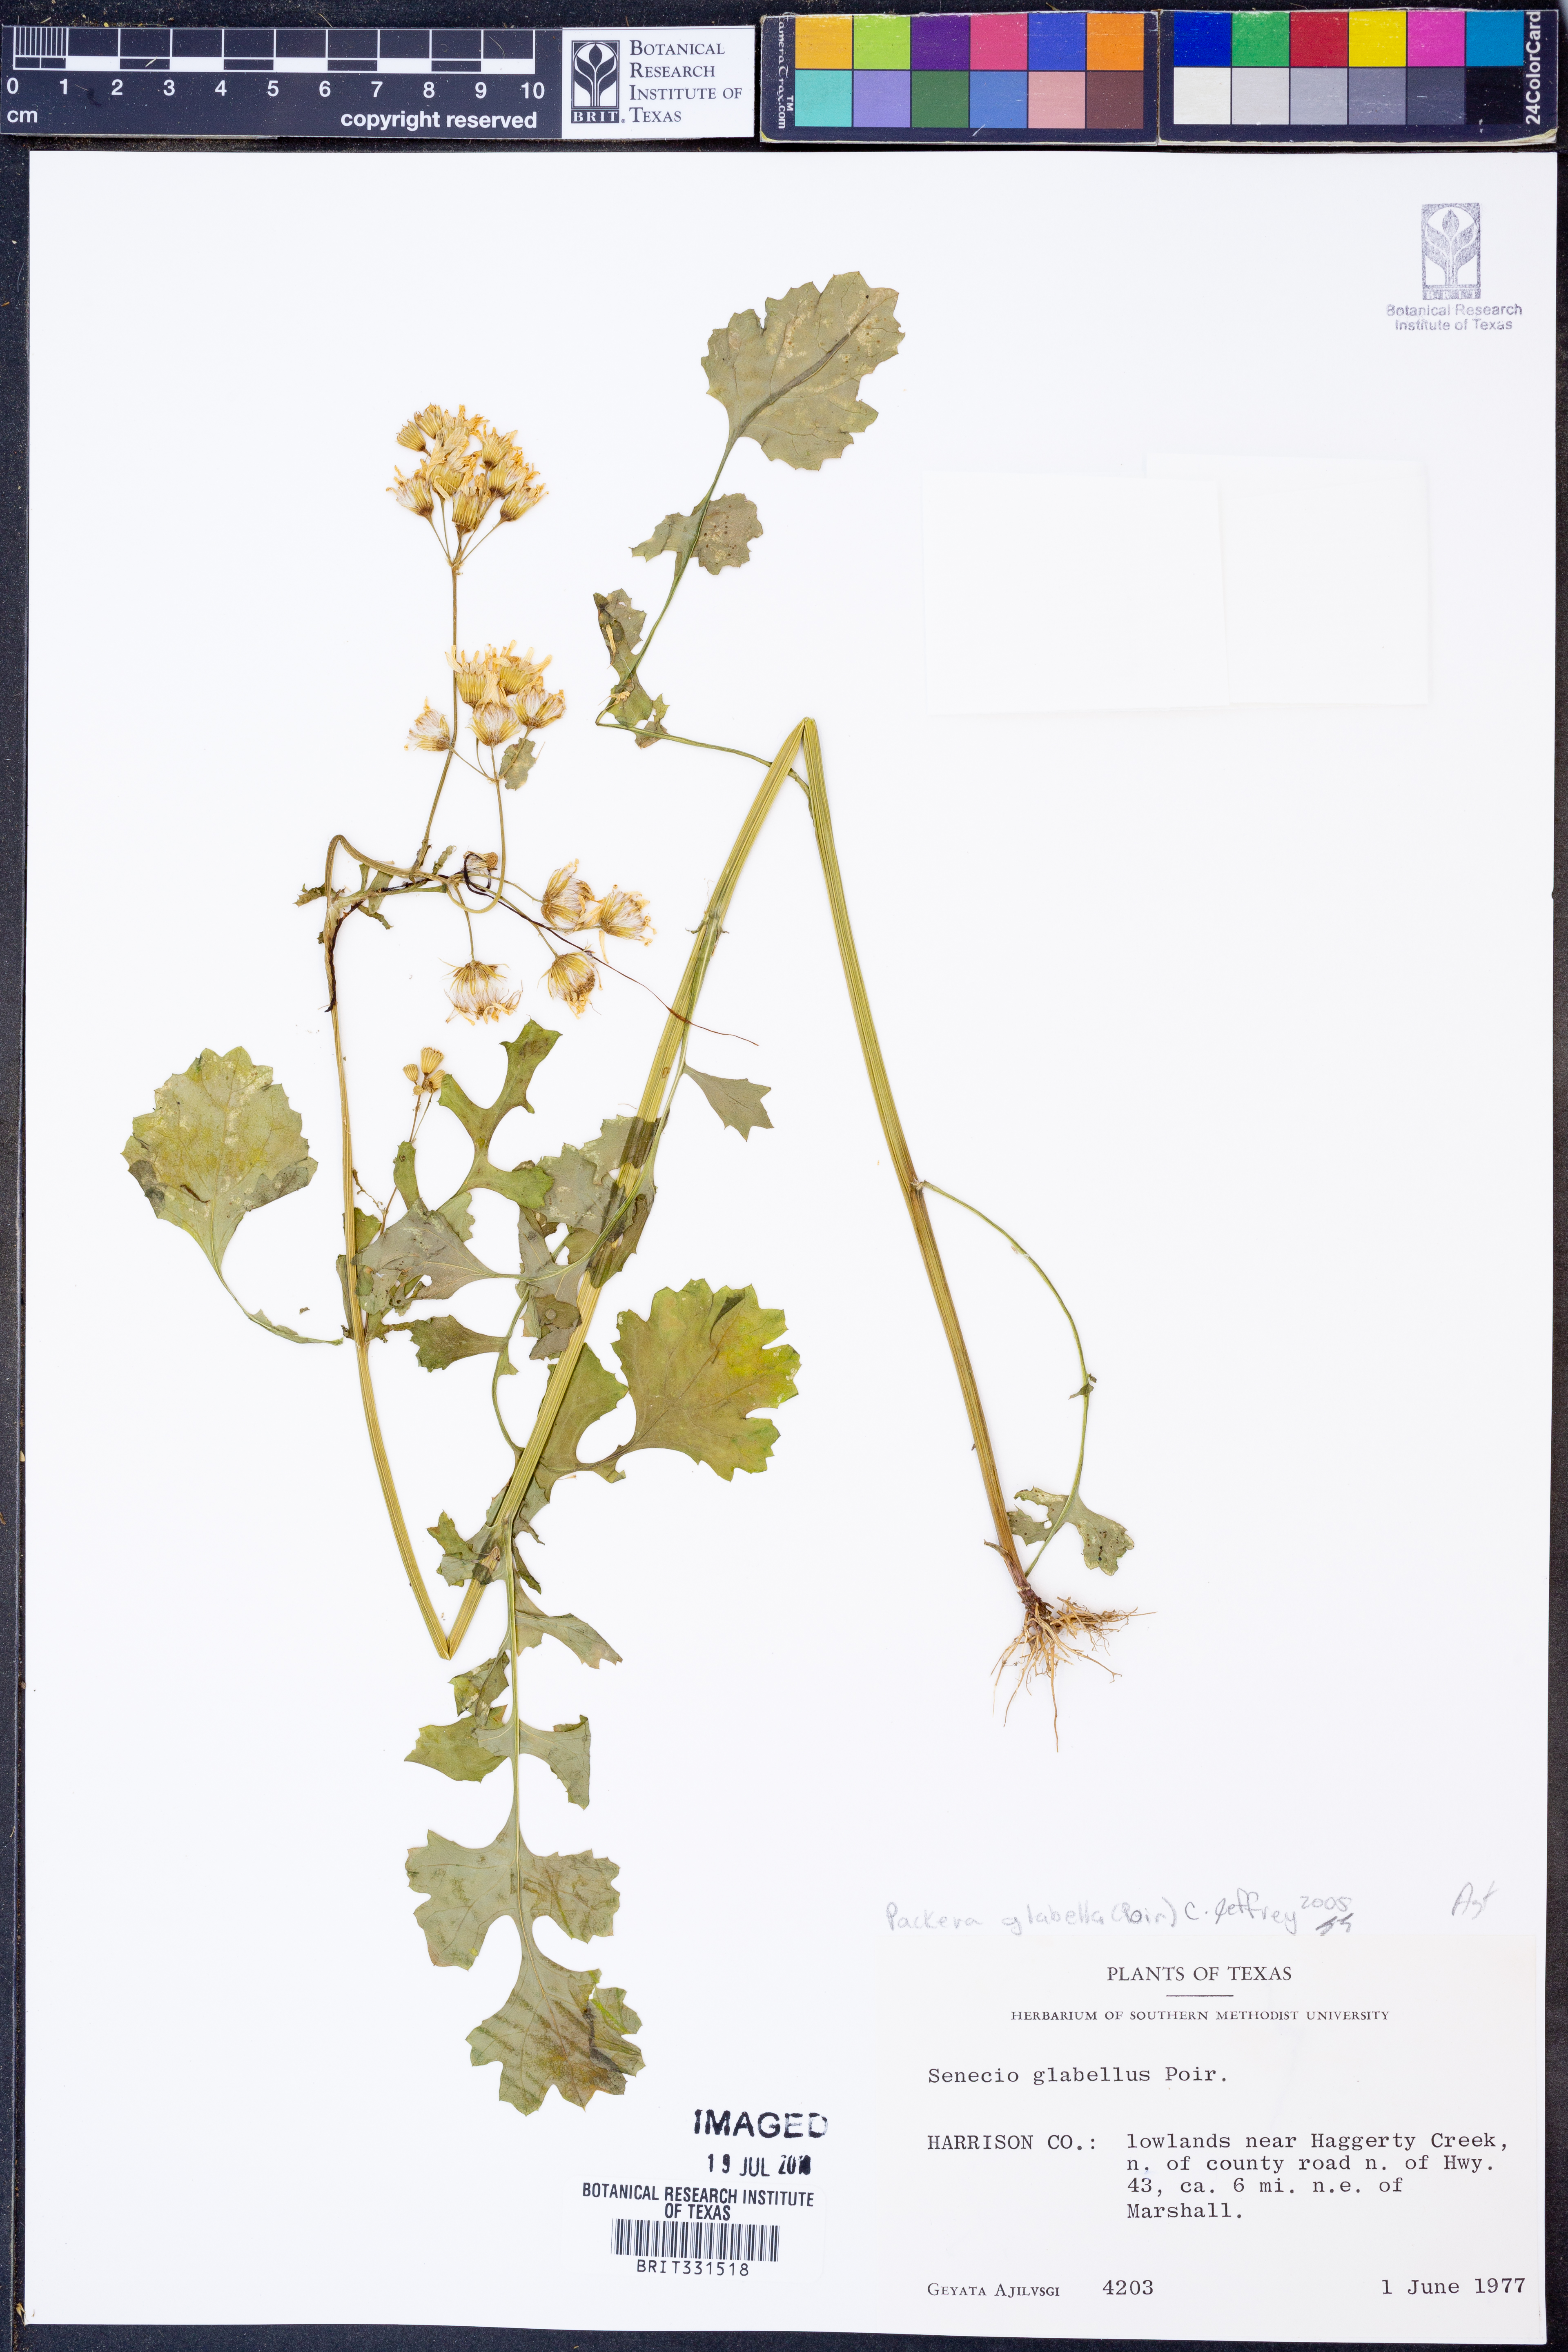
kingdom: Plantae
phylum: Tracheophyta
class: Magnoliopsida
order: Asterales
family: Asteraceae
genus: Packera
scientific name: Packera glabella
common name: Butterweed
